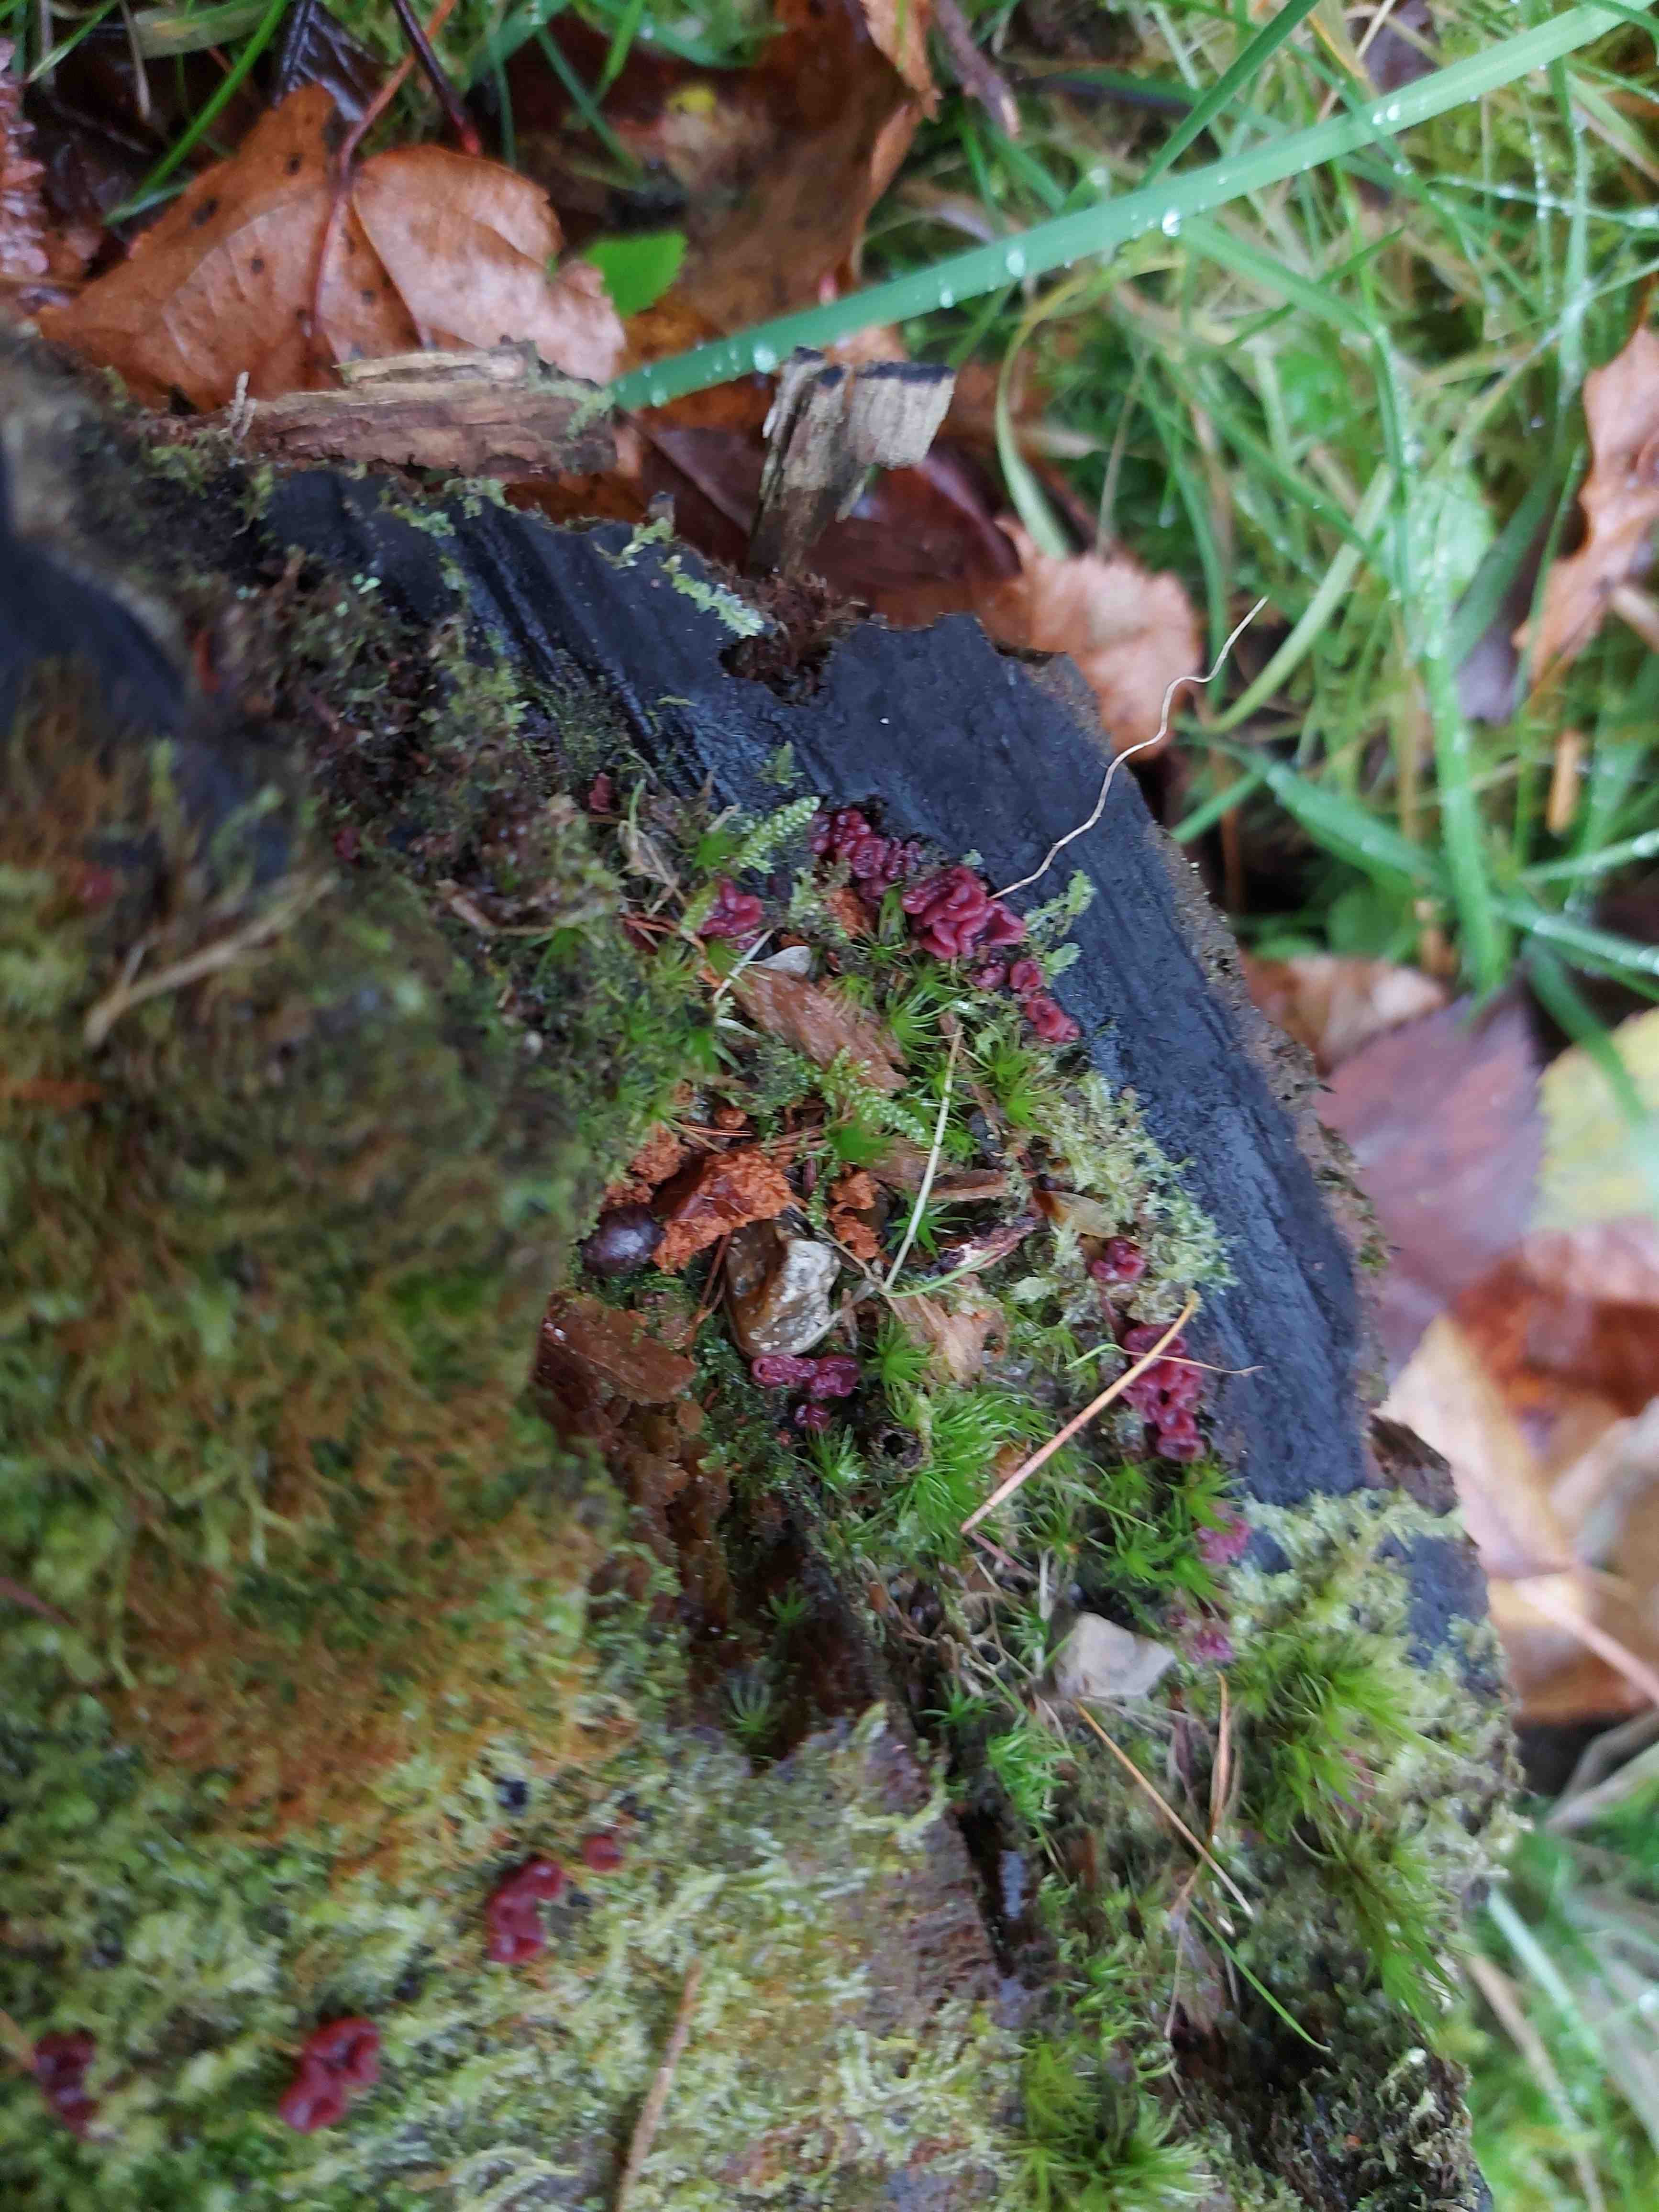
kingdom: Fungi
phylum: Ascomycota
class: Leotiomycetes
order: Helotiales
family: Gelatinodiscaceae
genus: Ascocoryne
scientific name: Ascocoryne sarcoides
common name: rødlilla sejskive
